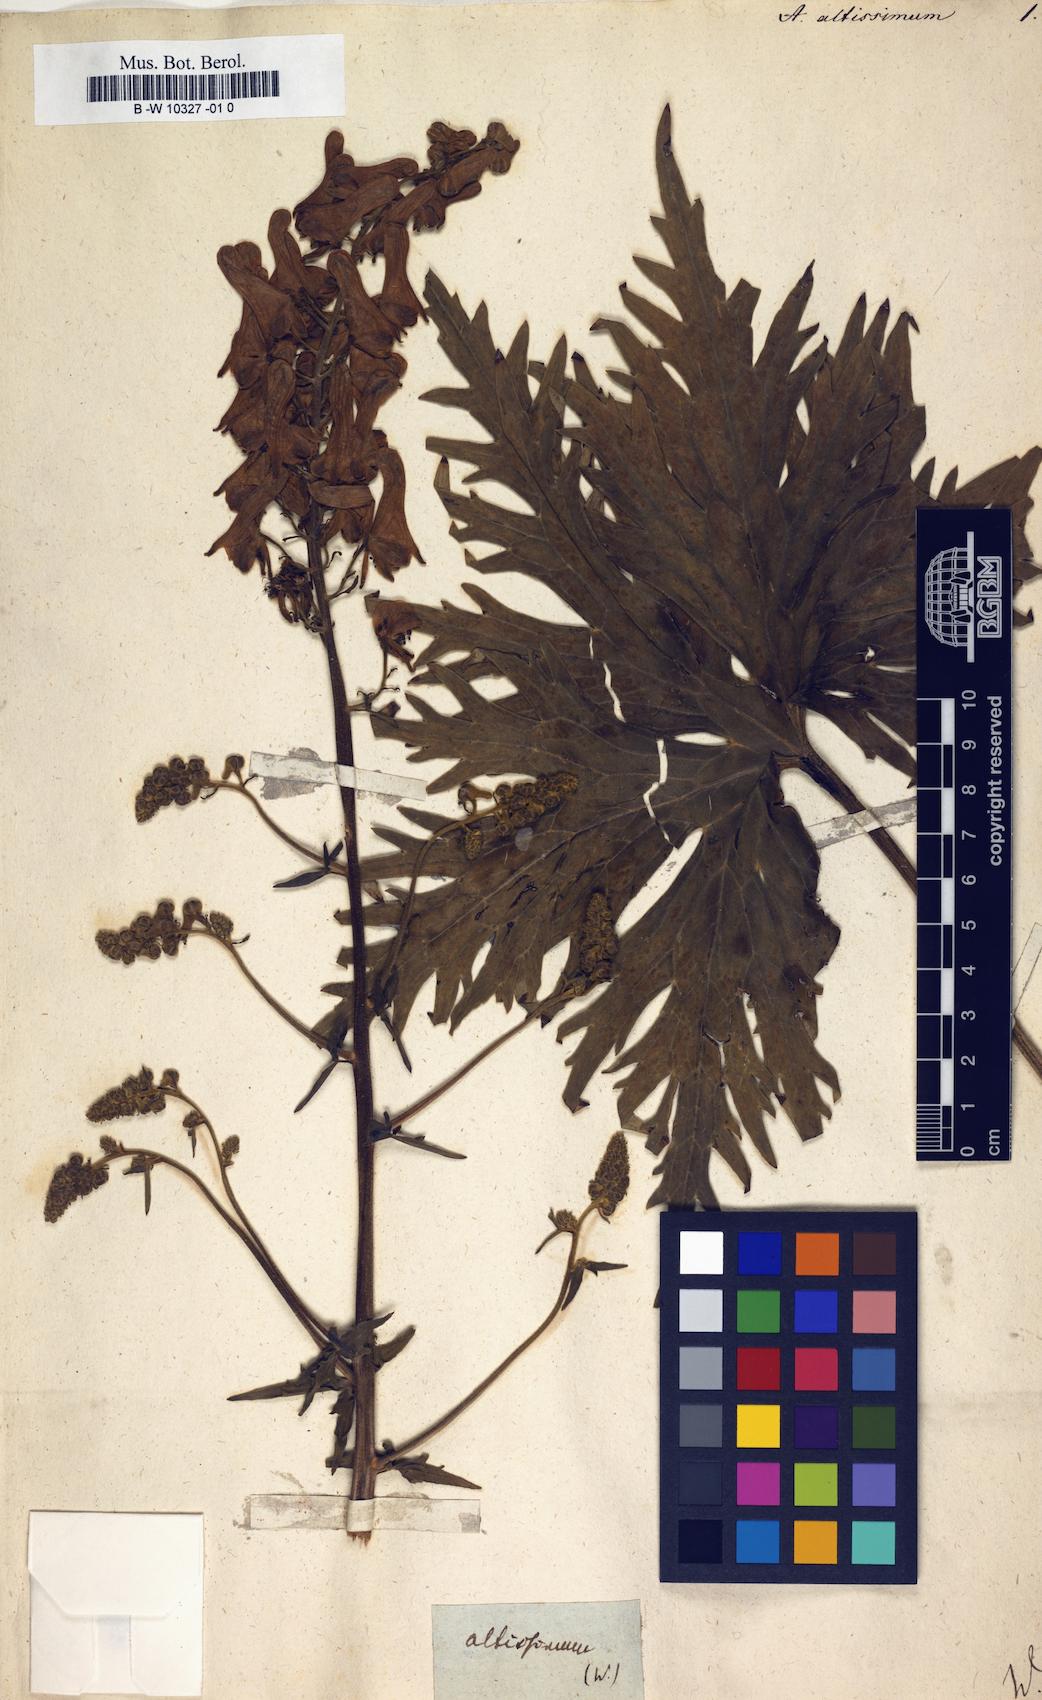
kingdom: Plantae
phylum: Tracheophyta
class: Magnoliopsida
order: Ranunculales
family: Ranunculaceae
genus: Aconitum
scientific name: Aconitum lycoctonum
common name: Wolf's-bane
